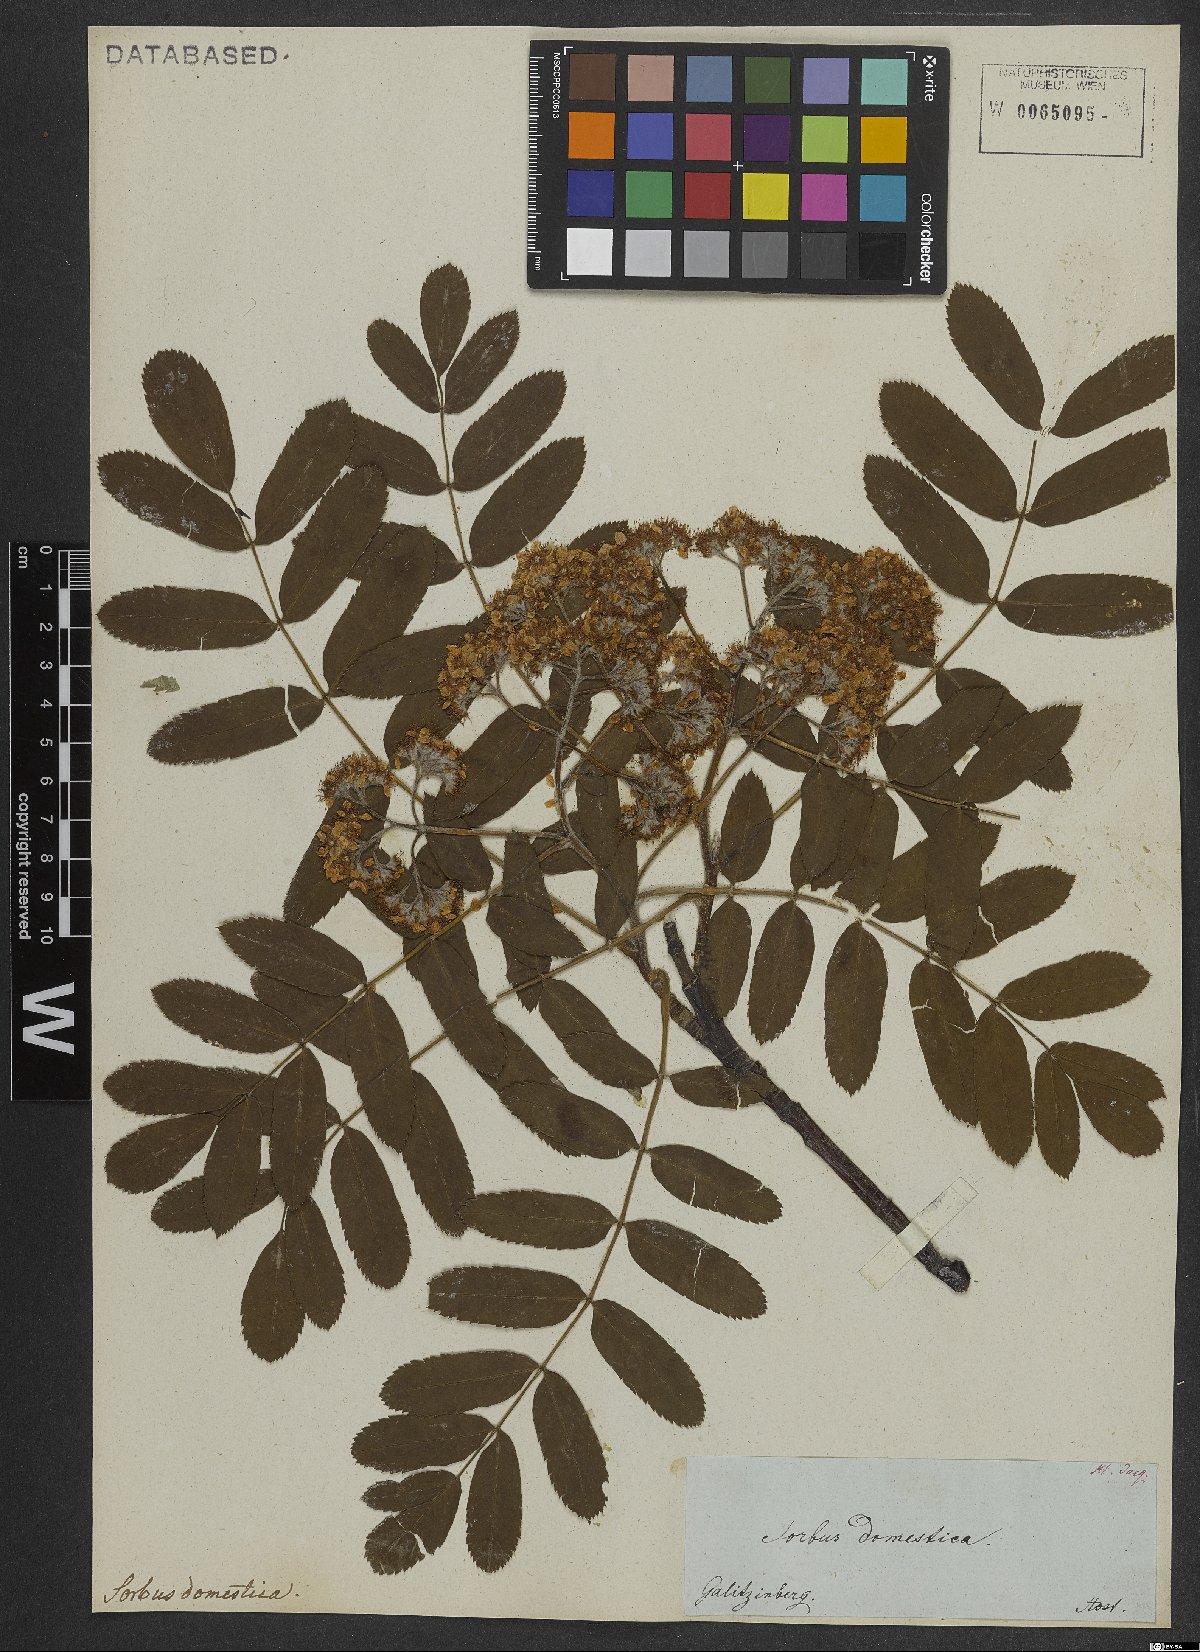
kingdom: Plantae
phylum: Tracheophyta
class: Magnoliopsida
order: Rosales
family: Rosaceae
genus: Sorbus
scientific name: Sorbus aucuparia
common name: Rowan
